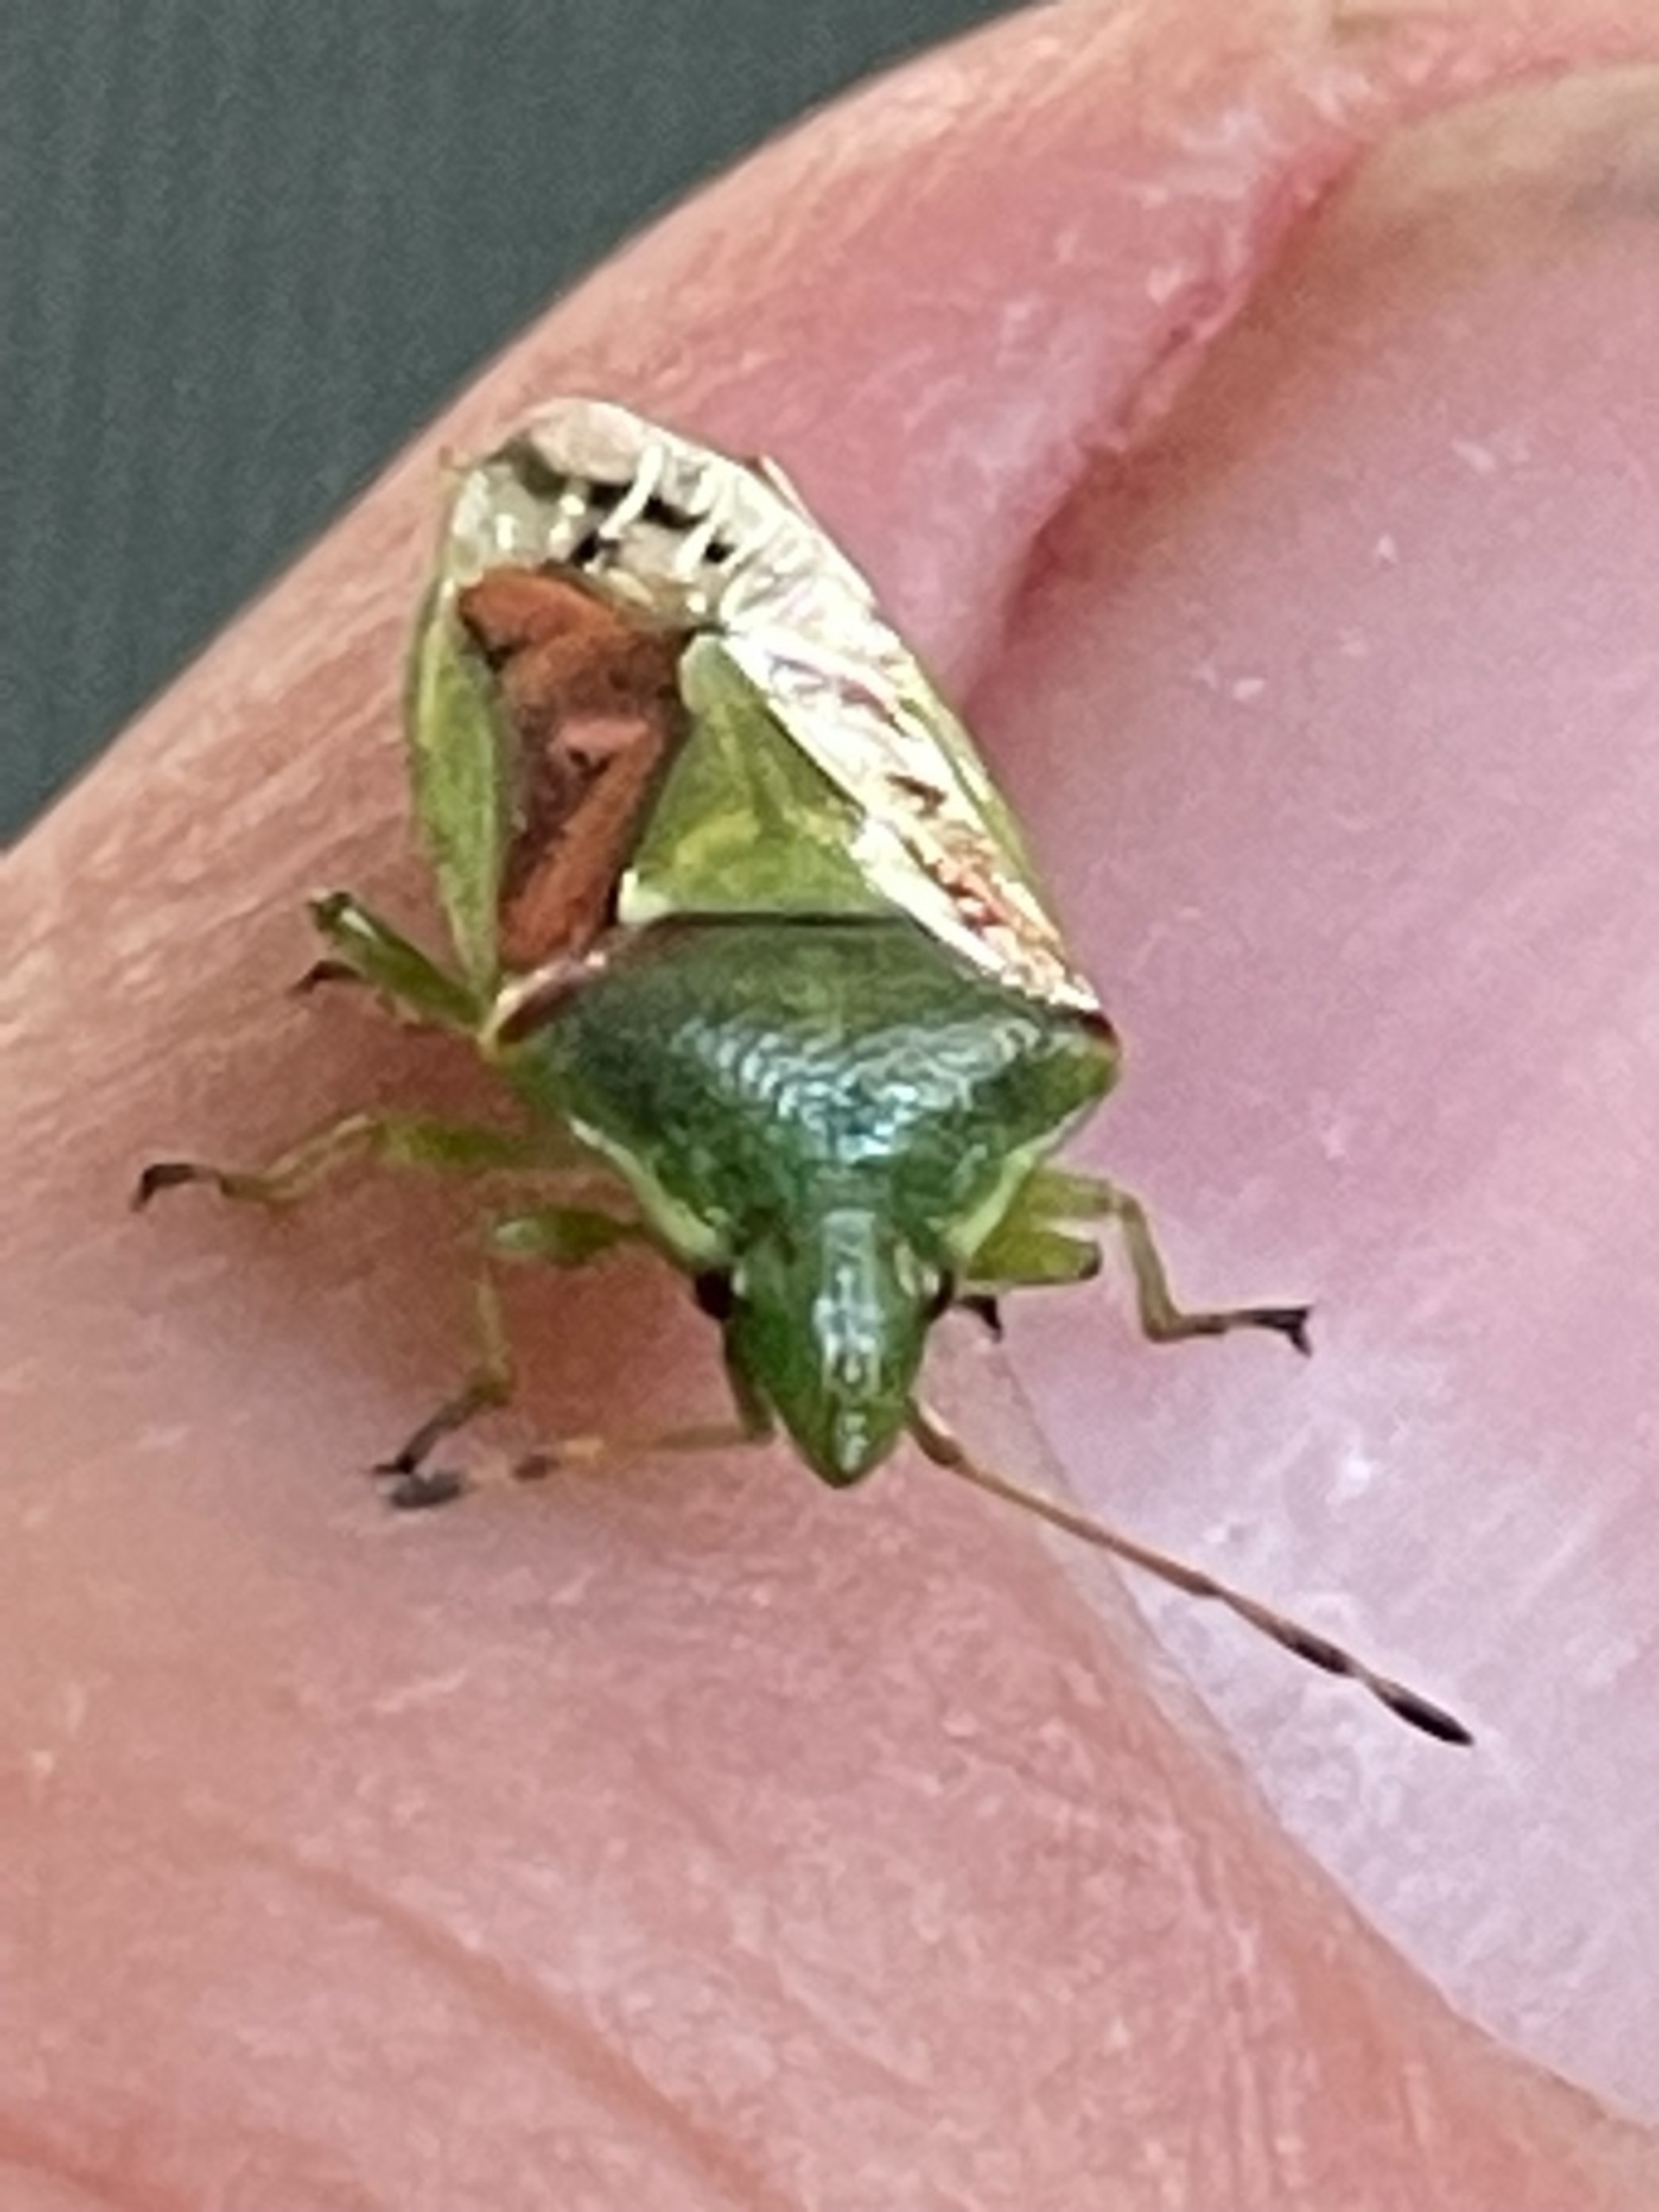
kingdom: Animalia
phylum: Arthropoda
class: Insecta
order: Hemiptera
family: Acanthosomatidae
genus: Cyphostethus
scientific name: Cyphostethus tristriatus
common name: Slank enebærtæge
